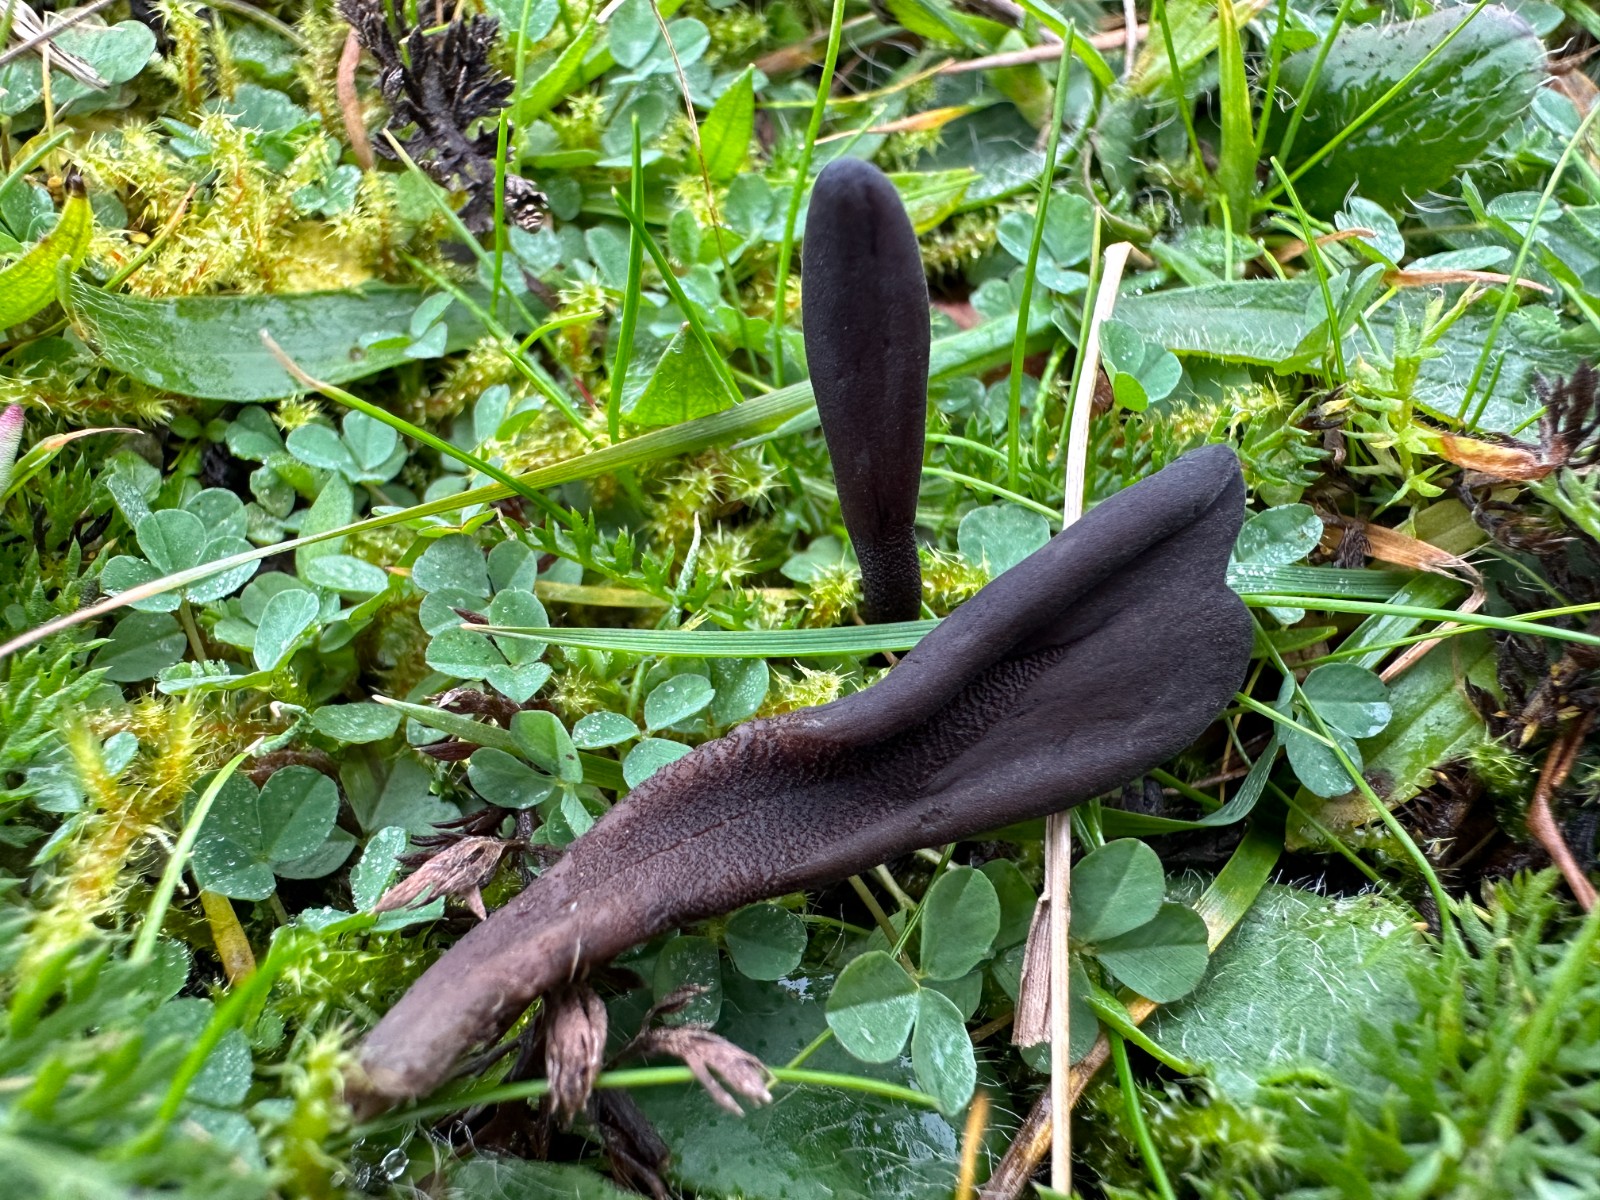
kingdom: Fungi
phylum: Ascomycota
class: Geoglossomycetes
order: Geoglossales
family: Geoglossaceae
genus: Hemileucoglossum
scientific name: Hemileucoglossum elongatum
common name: småsporet jordtunge
